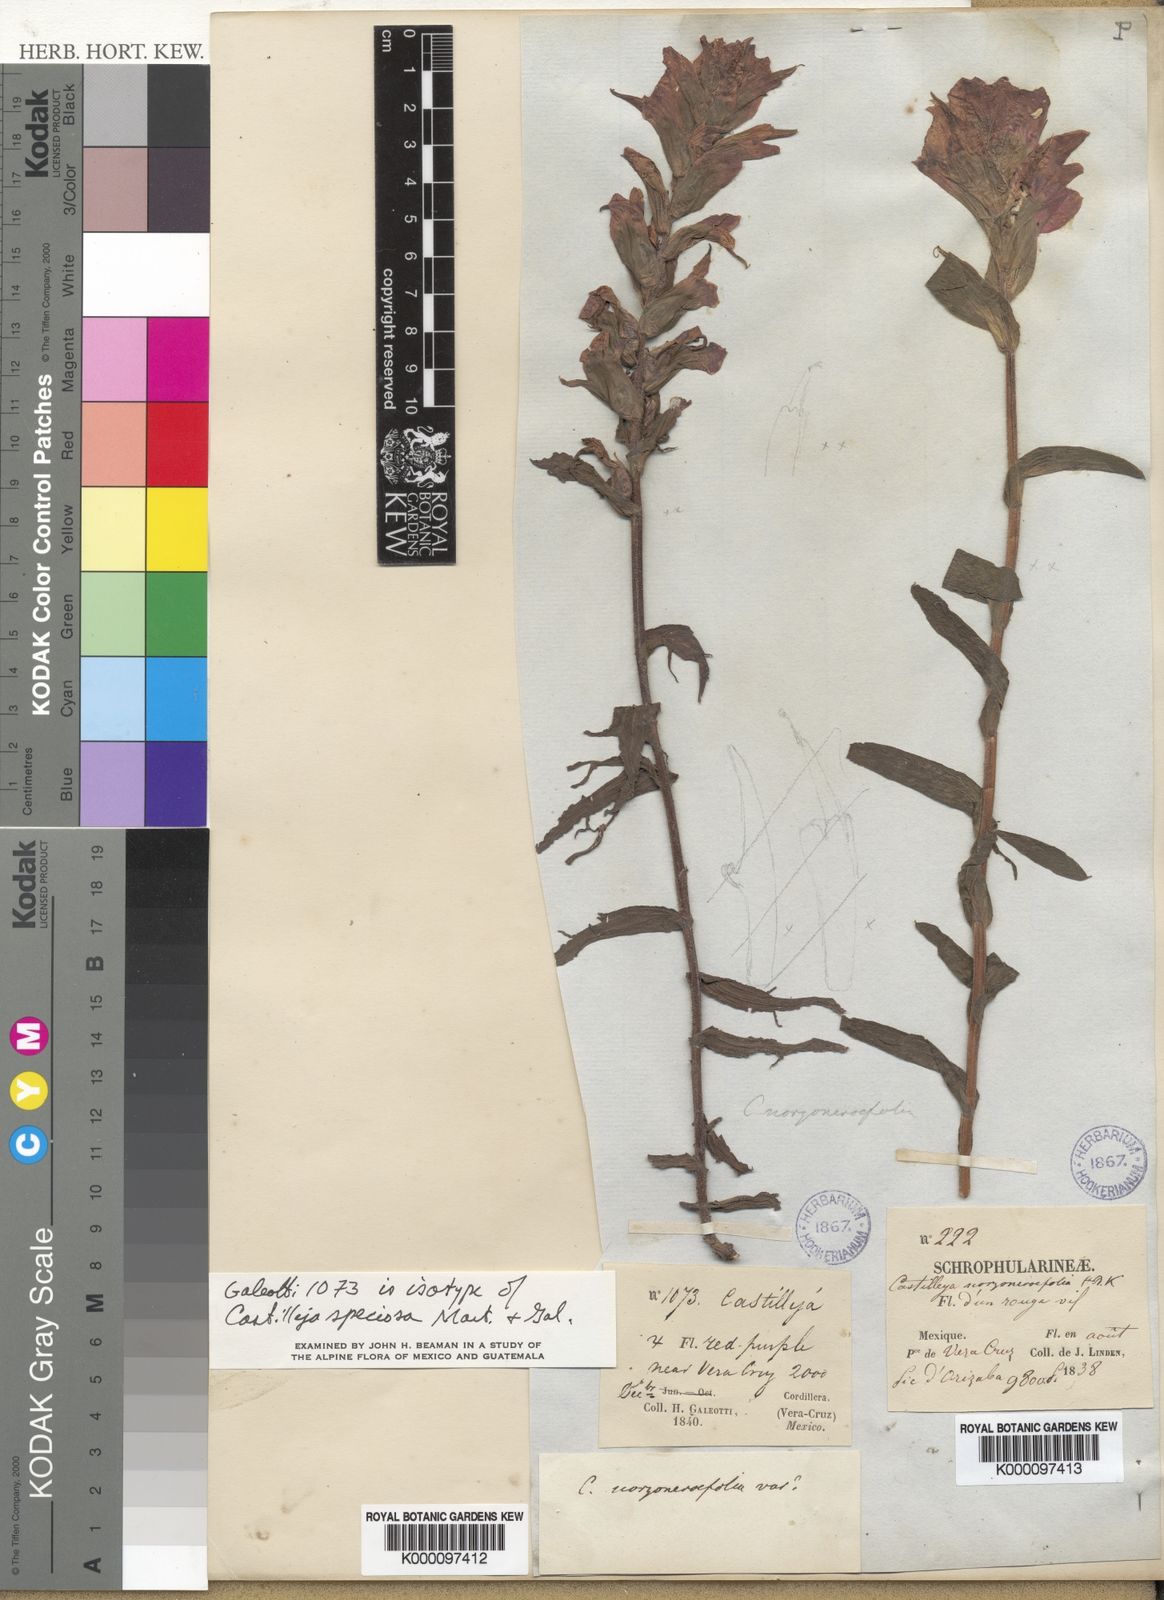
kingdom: Plantae
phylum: Tracheophyta
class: Magnoliopsida
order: Lamiales
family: Orobanchaceae
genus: Castilleja
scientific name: Castilleja hirsuta
